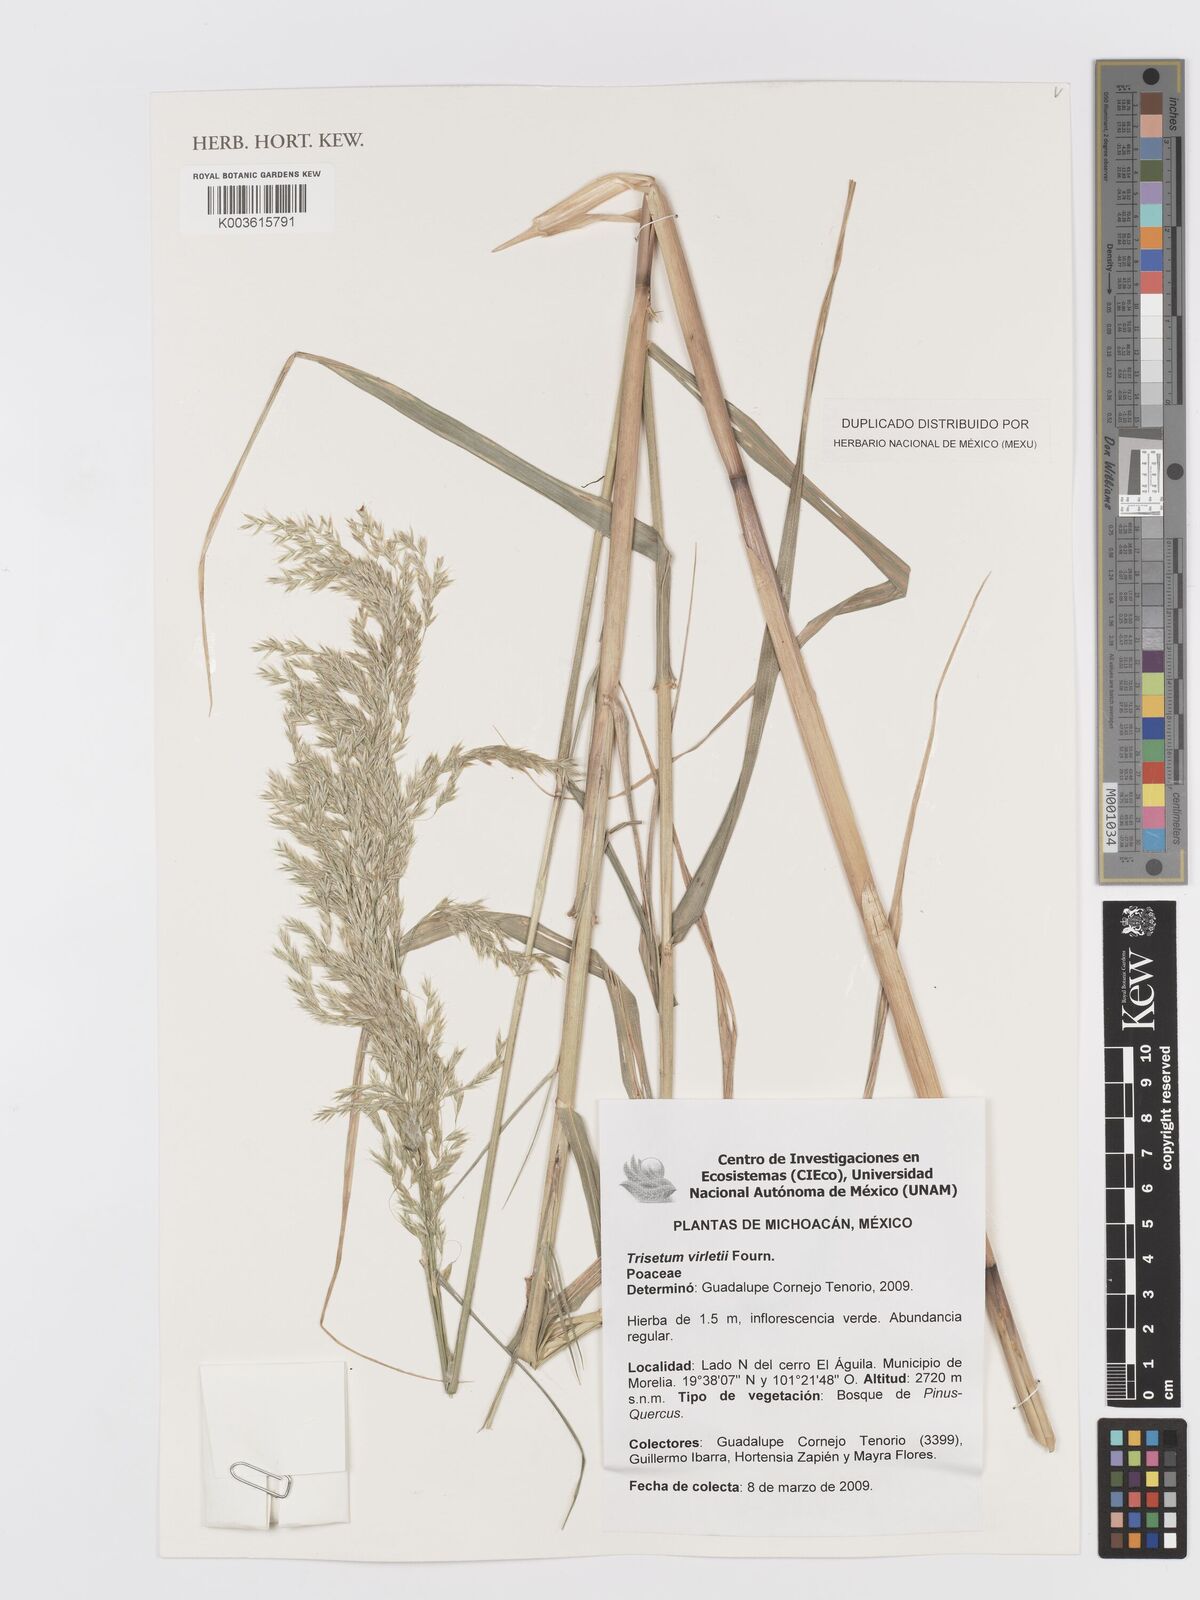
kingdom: Plantae
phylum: Tracheophyta
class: Liliopsida
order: Poales
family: Poaceae
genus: Peyritschia
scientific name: Peyritschia virletii
